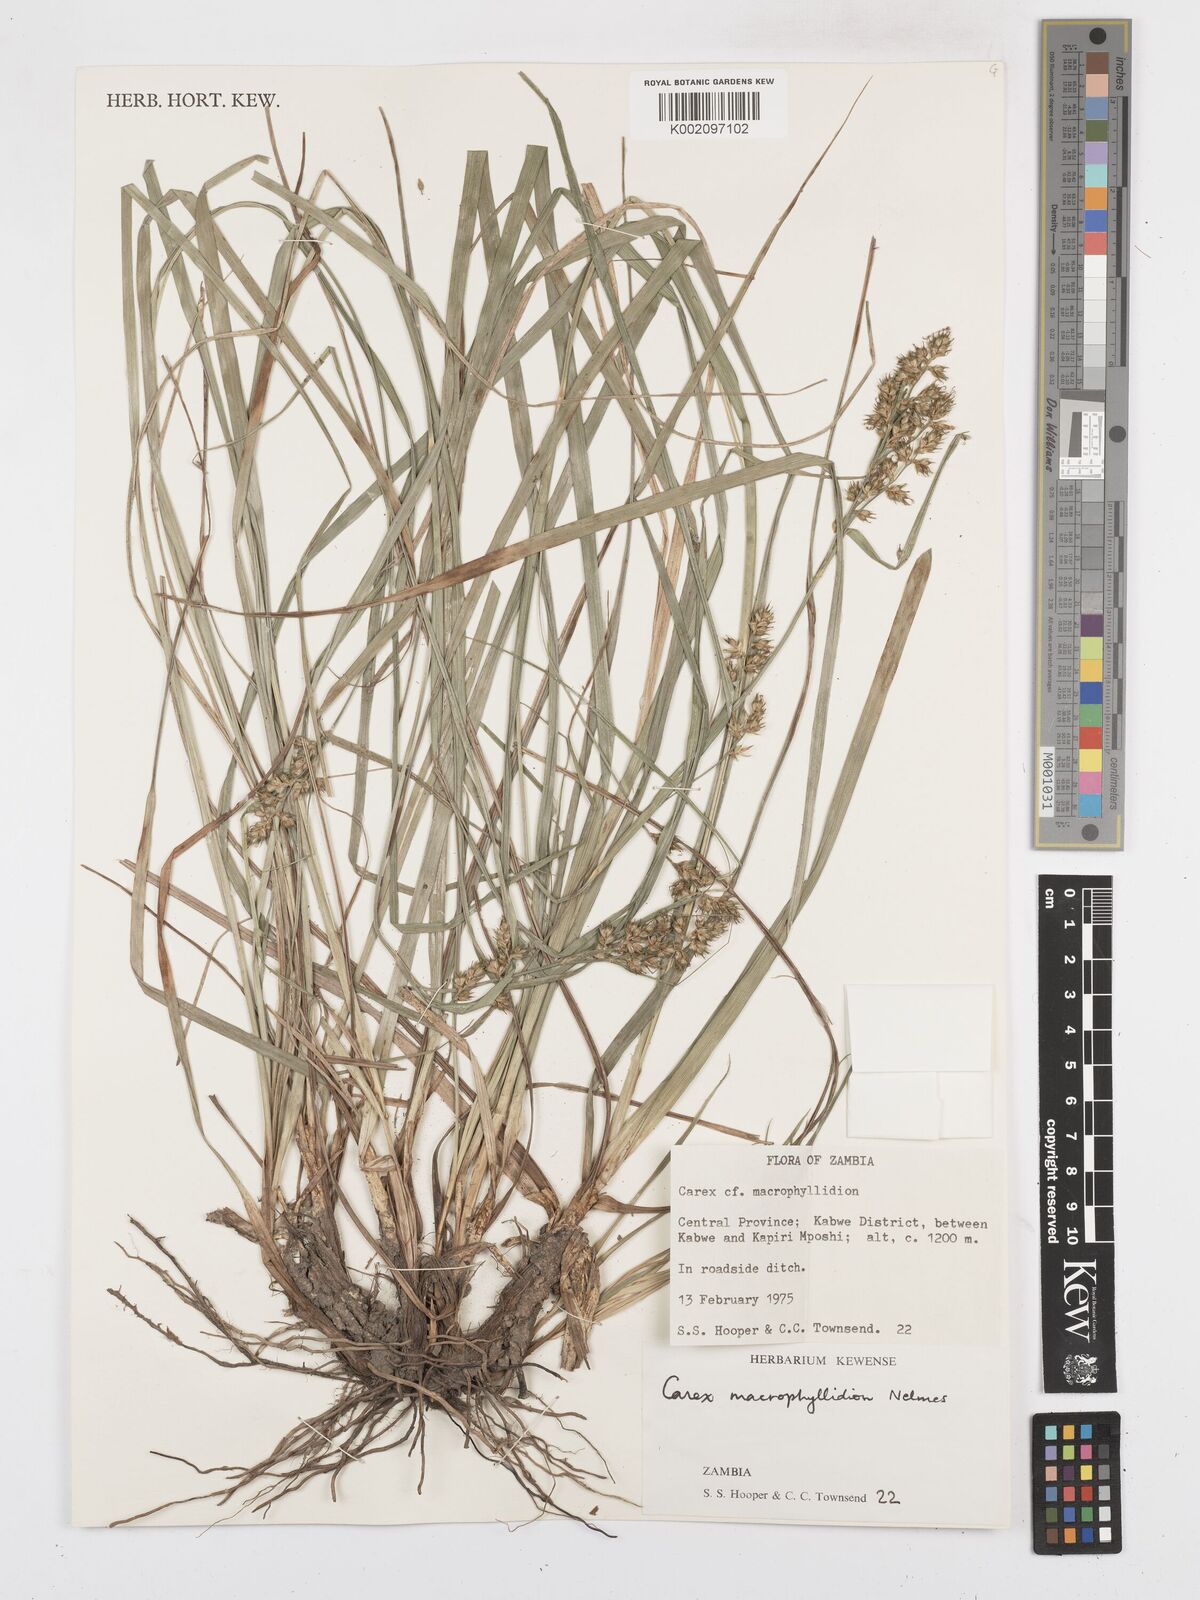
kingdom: Plantae
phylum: Tracheophyta
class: Liliopsida
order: Poales
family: Cyperaceae
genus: Carex
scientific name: Carex macrophyllidion
